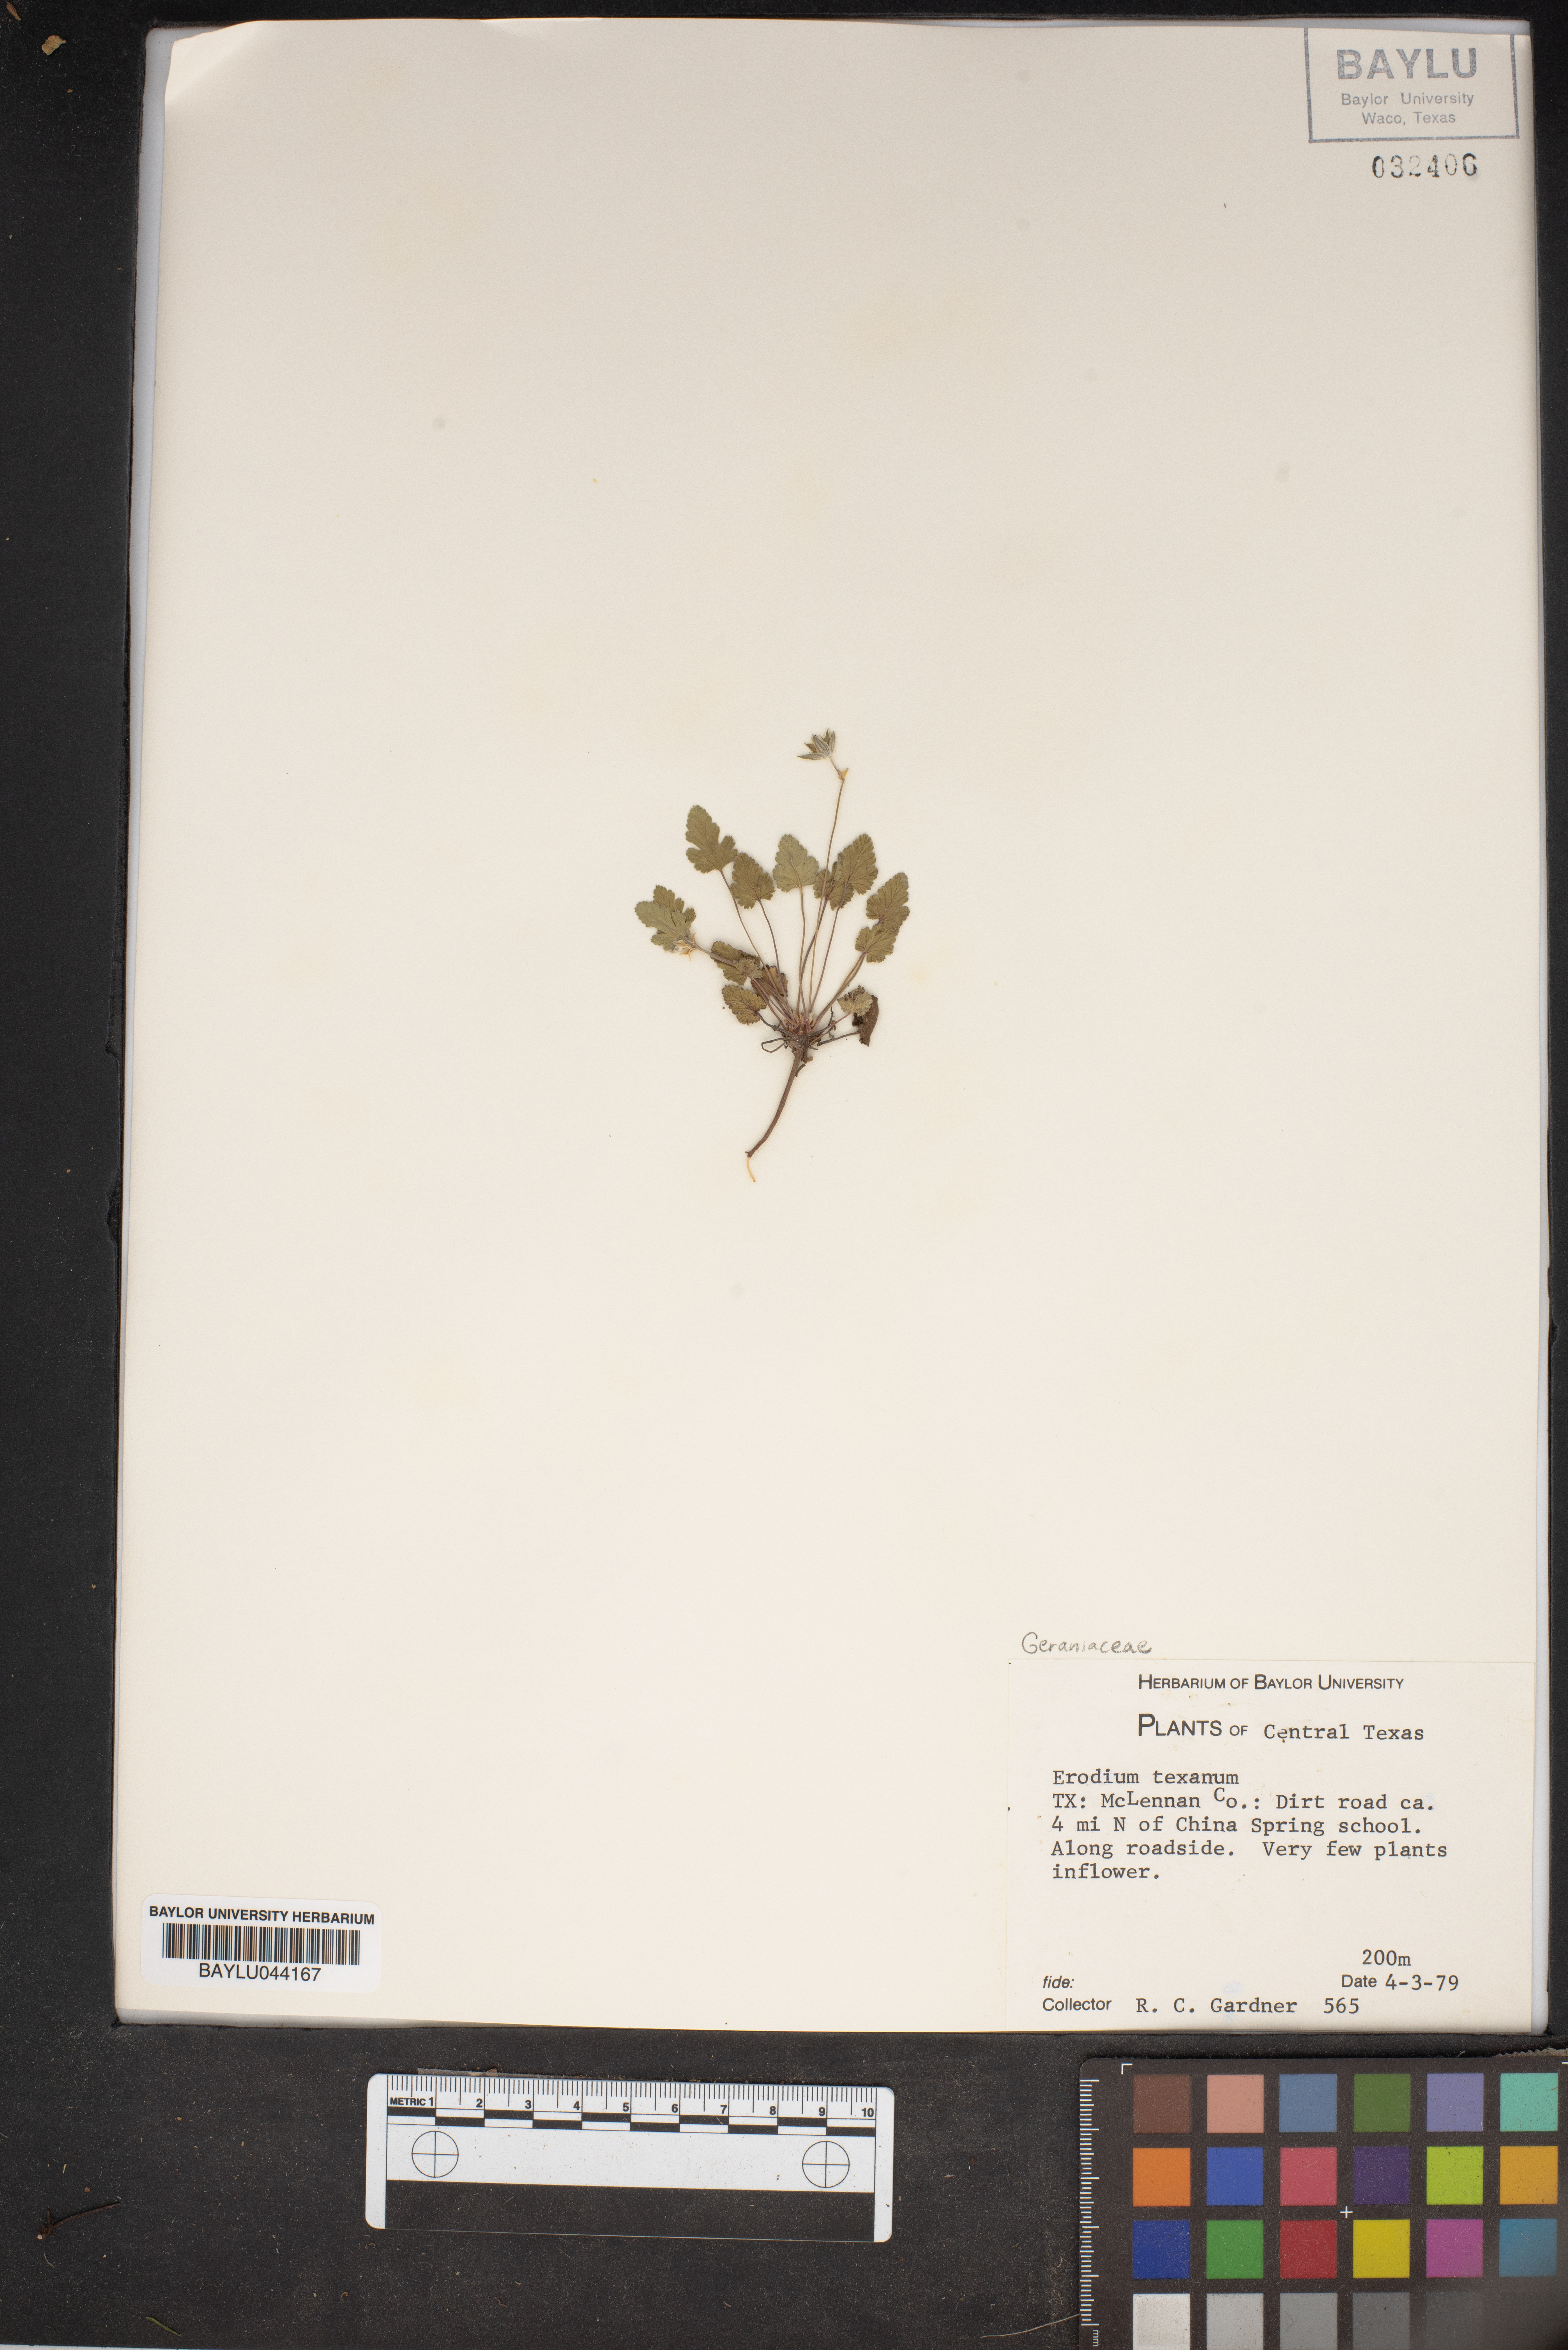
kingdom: Plantae
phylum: Tracheophyta
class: Magnoliopsida
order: Geraniales
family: Geraniaceae
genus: Erodium
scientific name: Erodium texanum
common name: Texas stork's-bill
